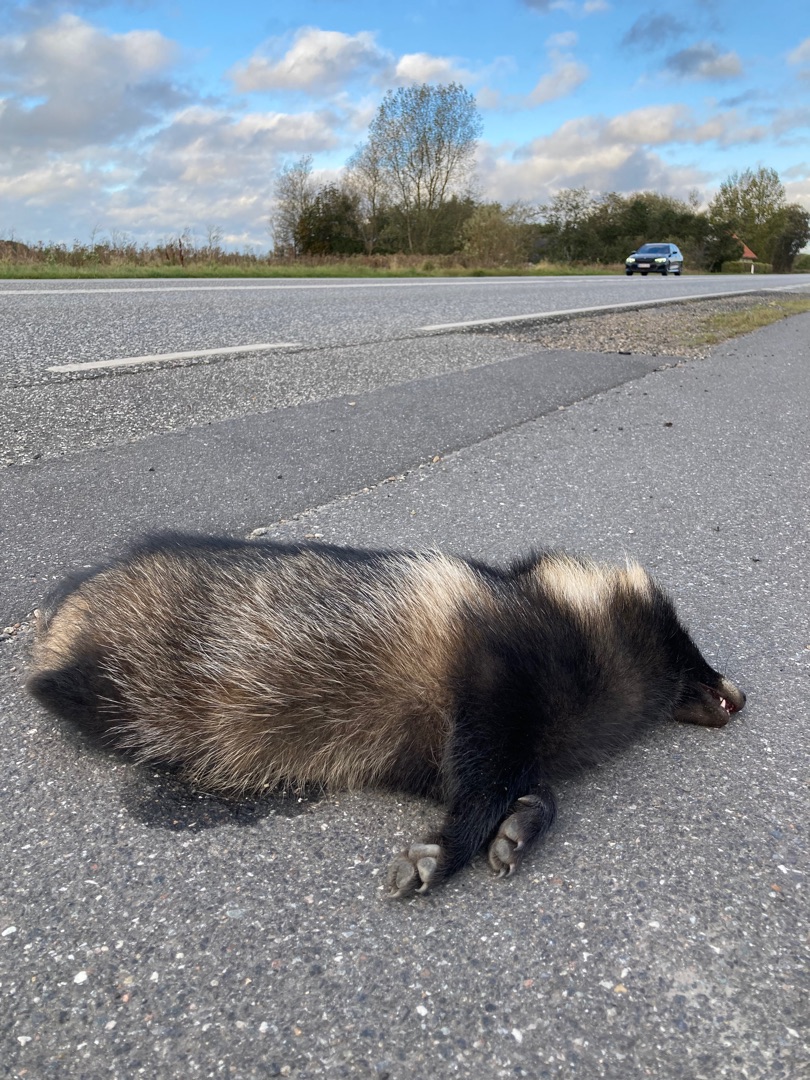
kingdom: Animalia
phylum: Chordata
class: Mammalia
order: Carnivora
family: Canidae
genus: Nyctereutes
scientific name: Nyctereutes procyonoides
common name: Mårhund
